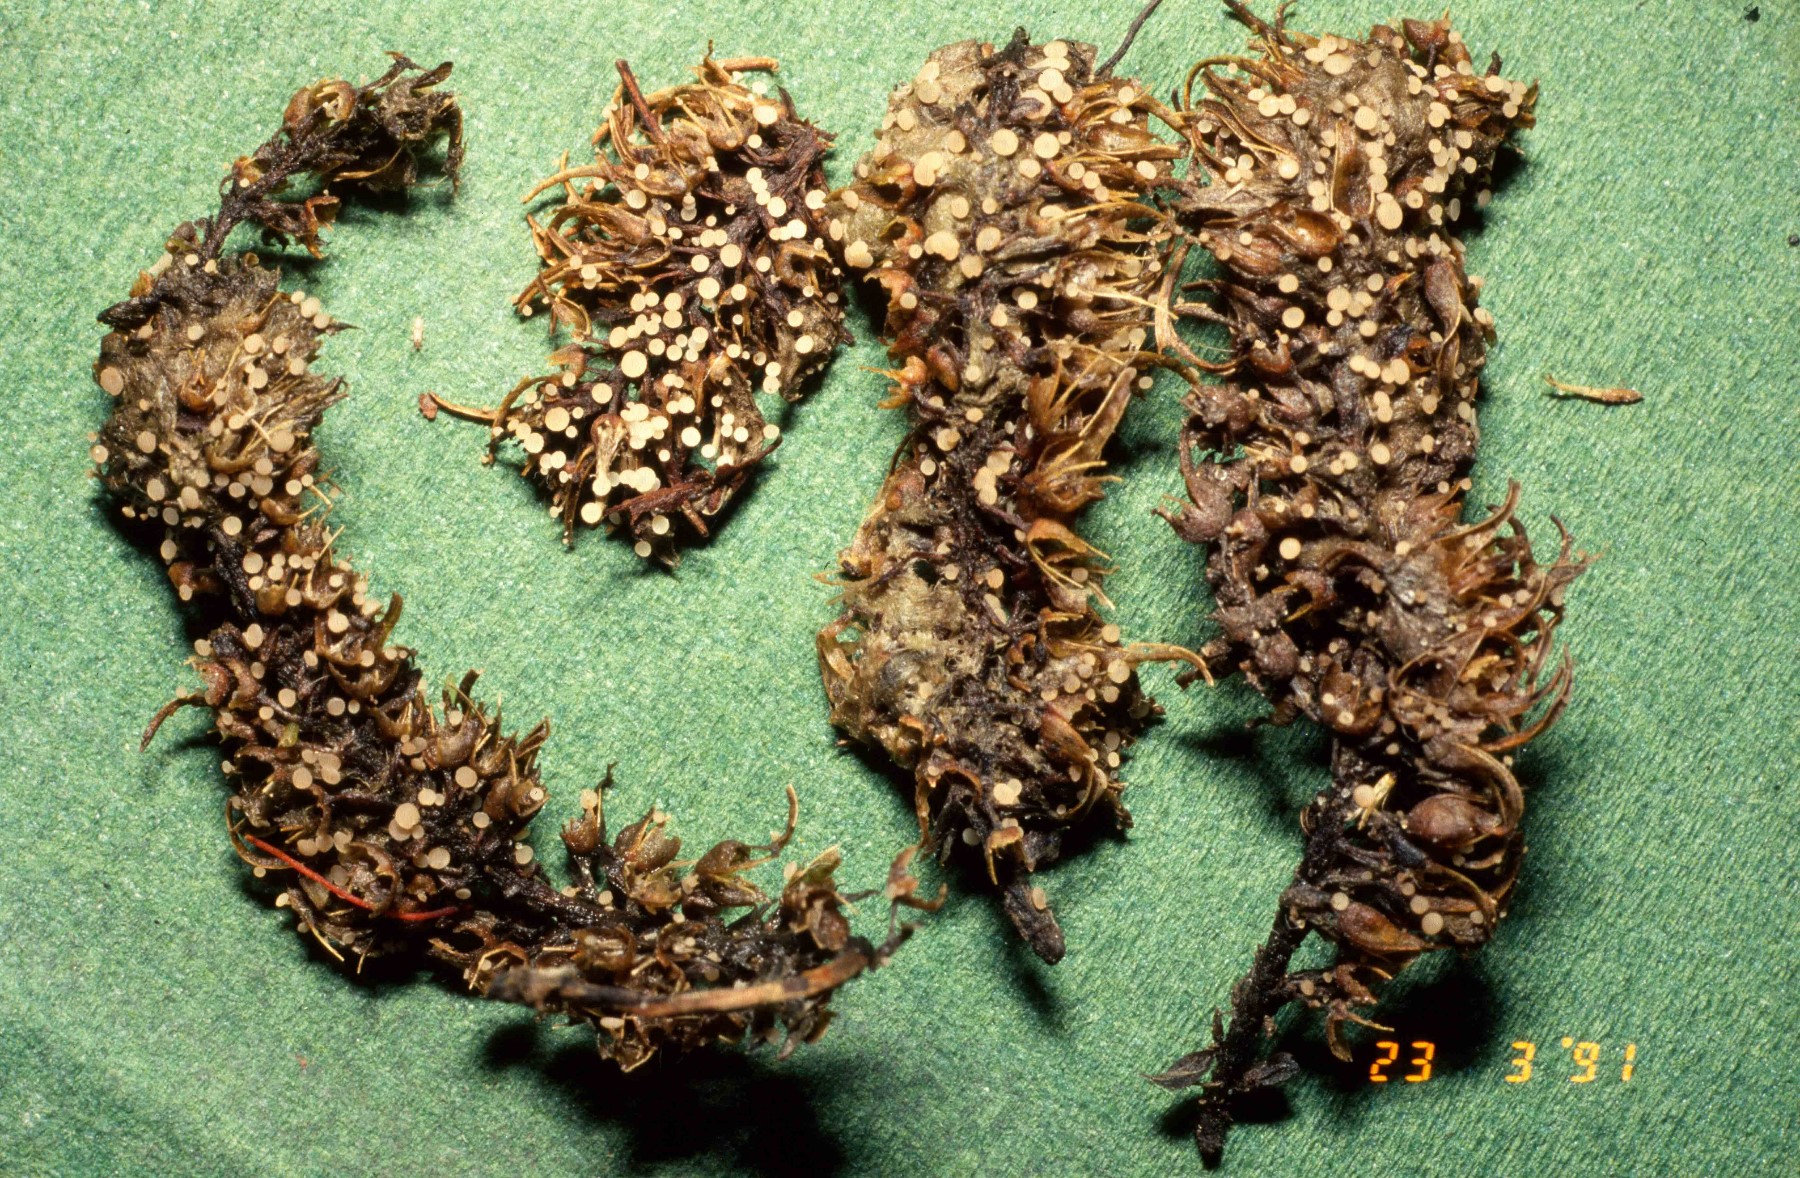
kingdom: Fungi
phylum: Ascomycota
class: Leotiomycetes
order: Helotiales
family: Helotiaceae
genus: Cyathicula
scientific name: Cyathicula amenti
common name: rakle-stilkskive
